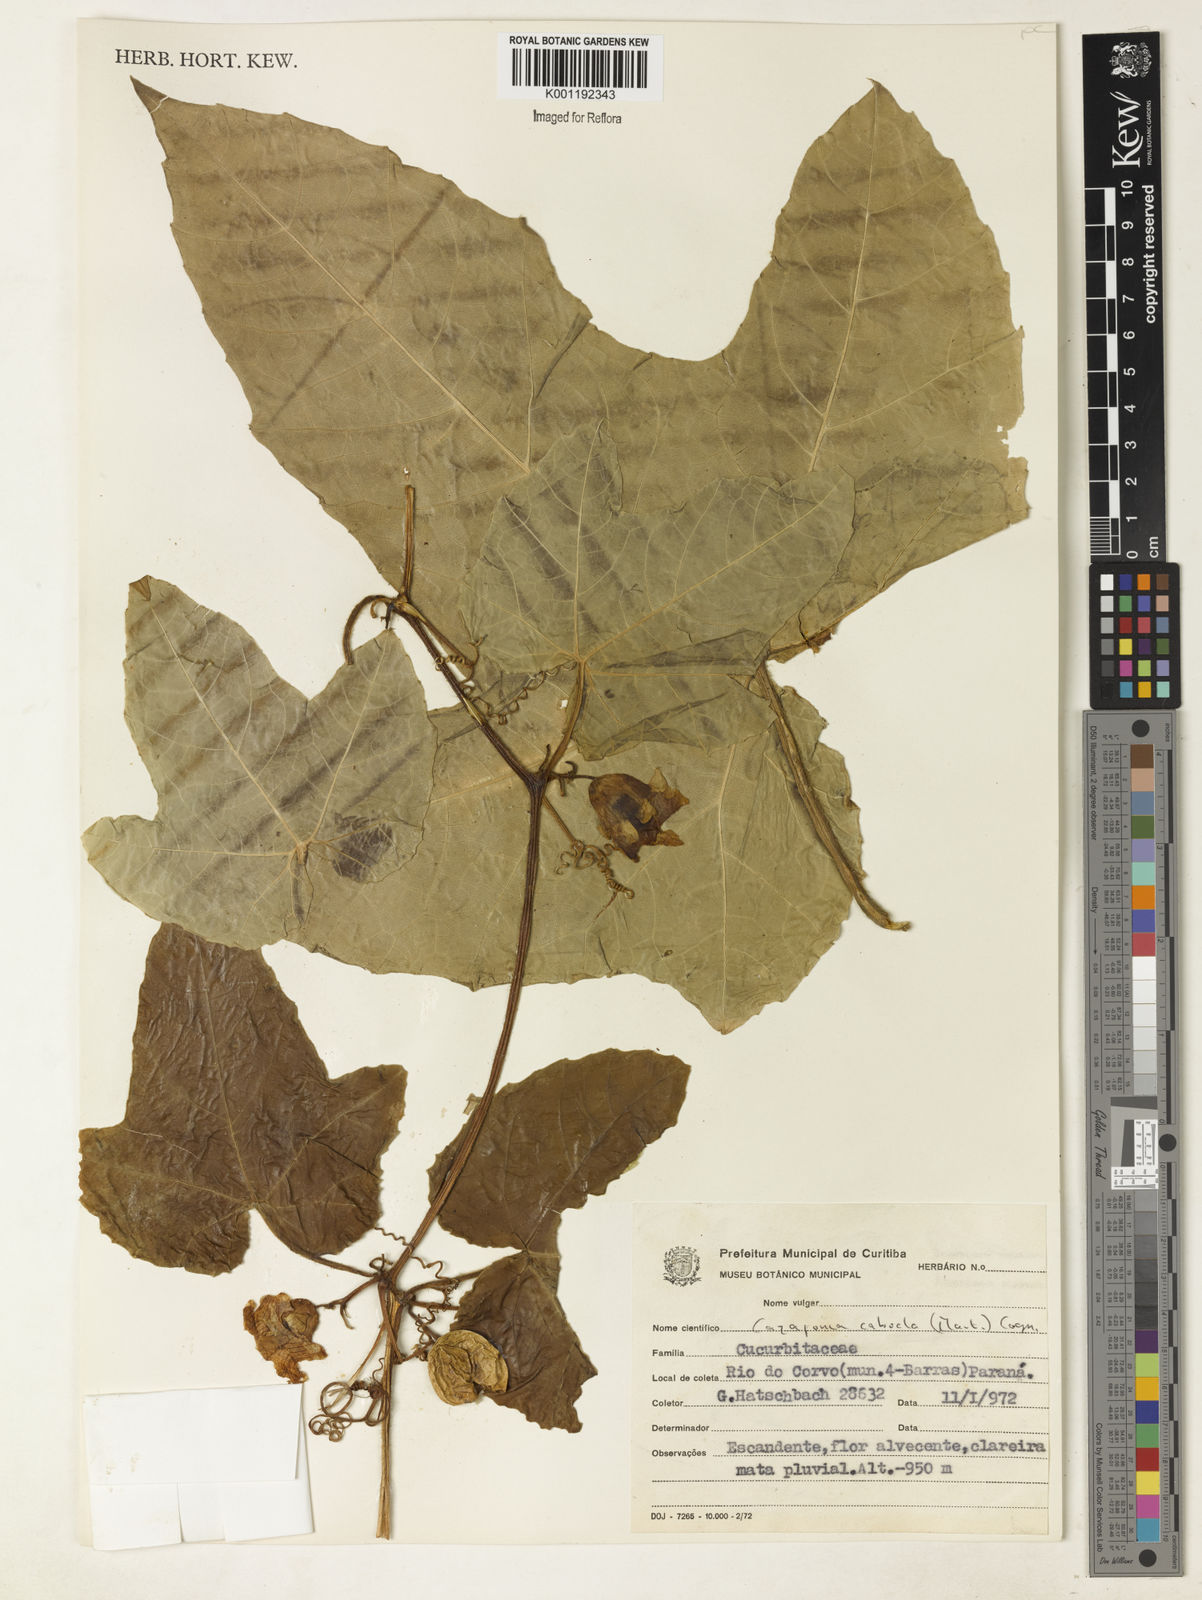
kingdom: Plantae
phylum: Tracheophyta
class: Magnoliopsida
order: Cucurbitales
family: Cucurbitaceae
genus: Cayaponia
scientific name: Cayaponia cabocla
